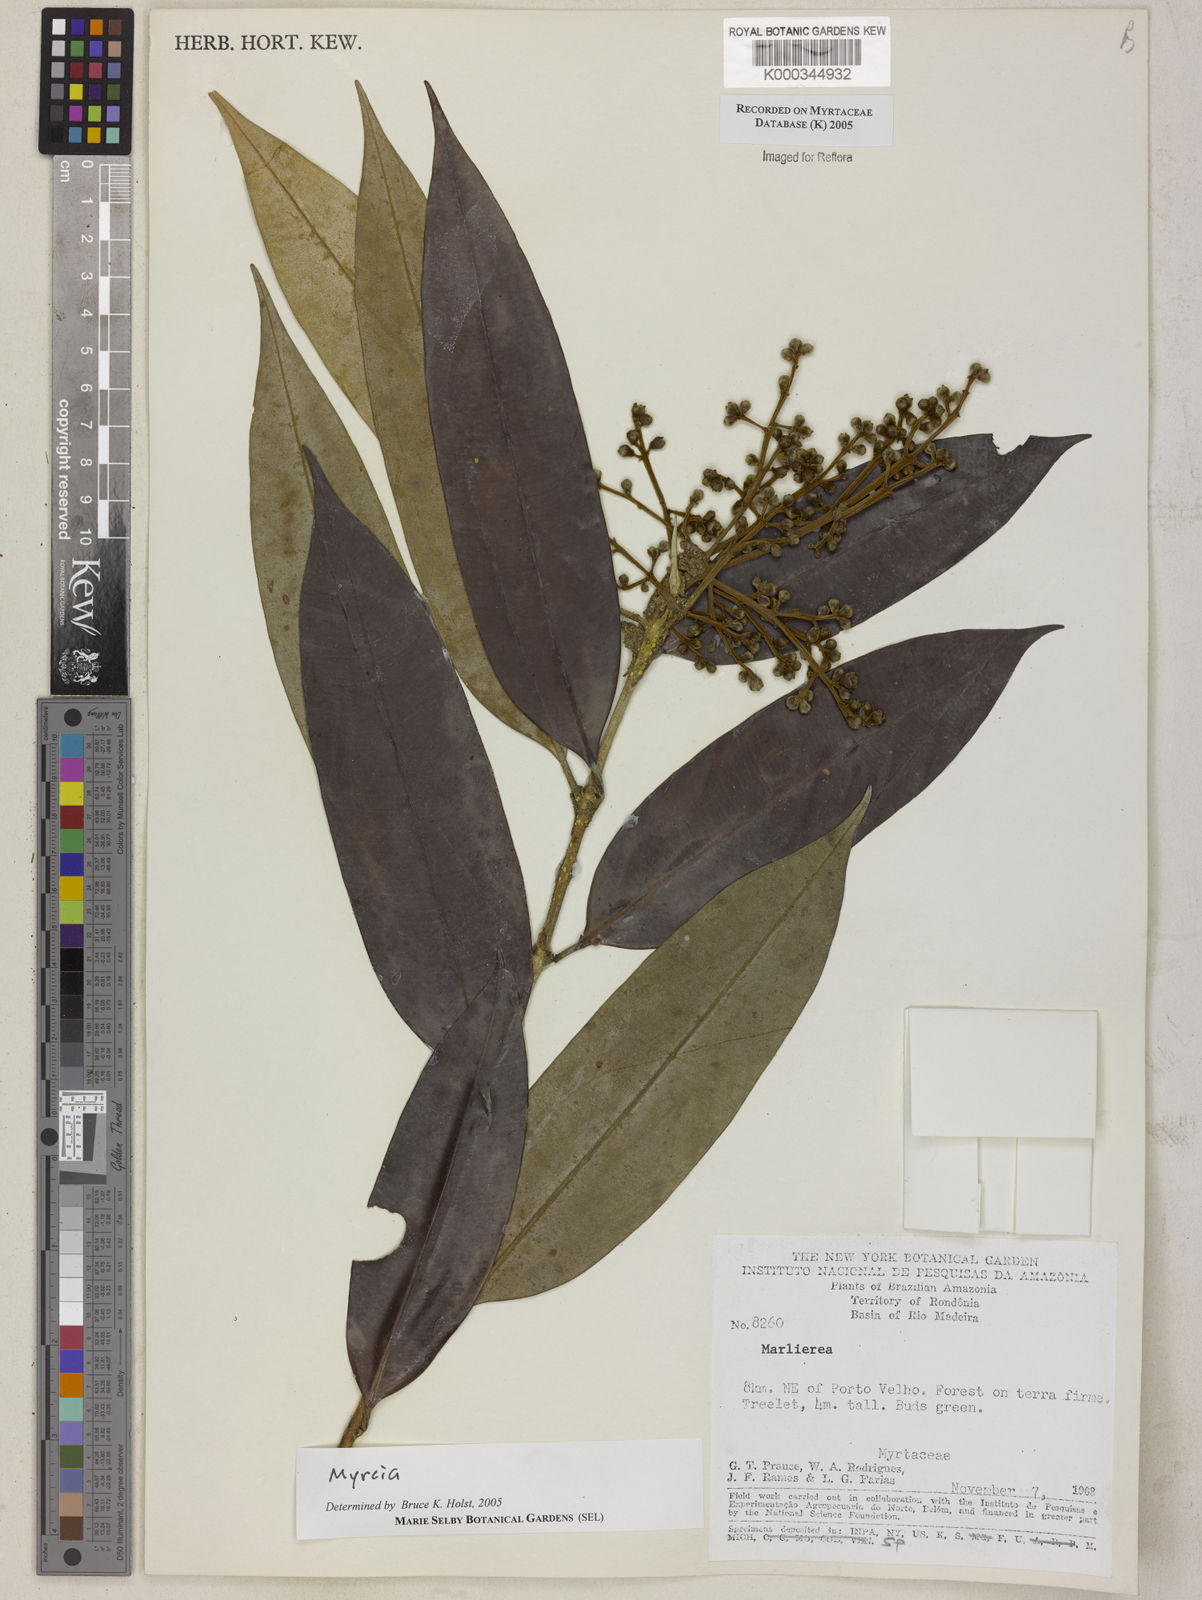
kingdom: Plantae
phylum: Tracheophyta
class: Magnoliopsida
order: Myrtales
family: Myrtaceae
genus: Myrcia
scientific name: Myrcia elevata
